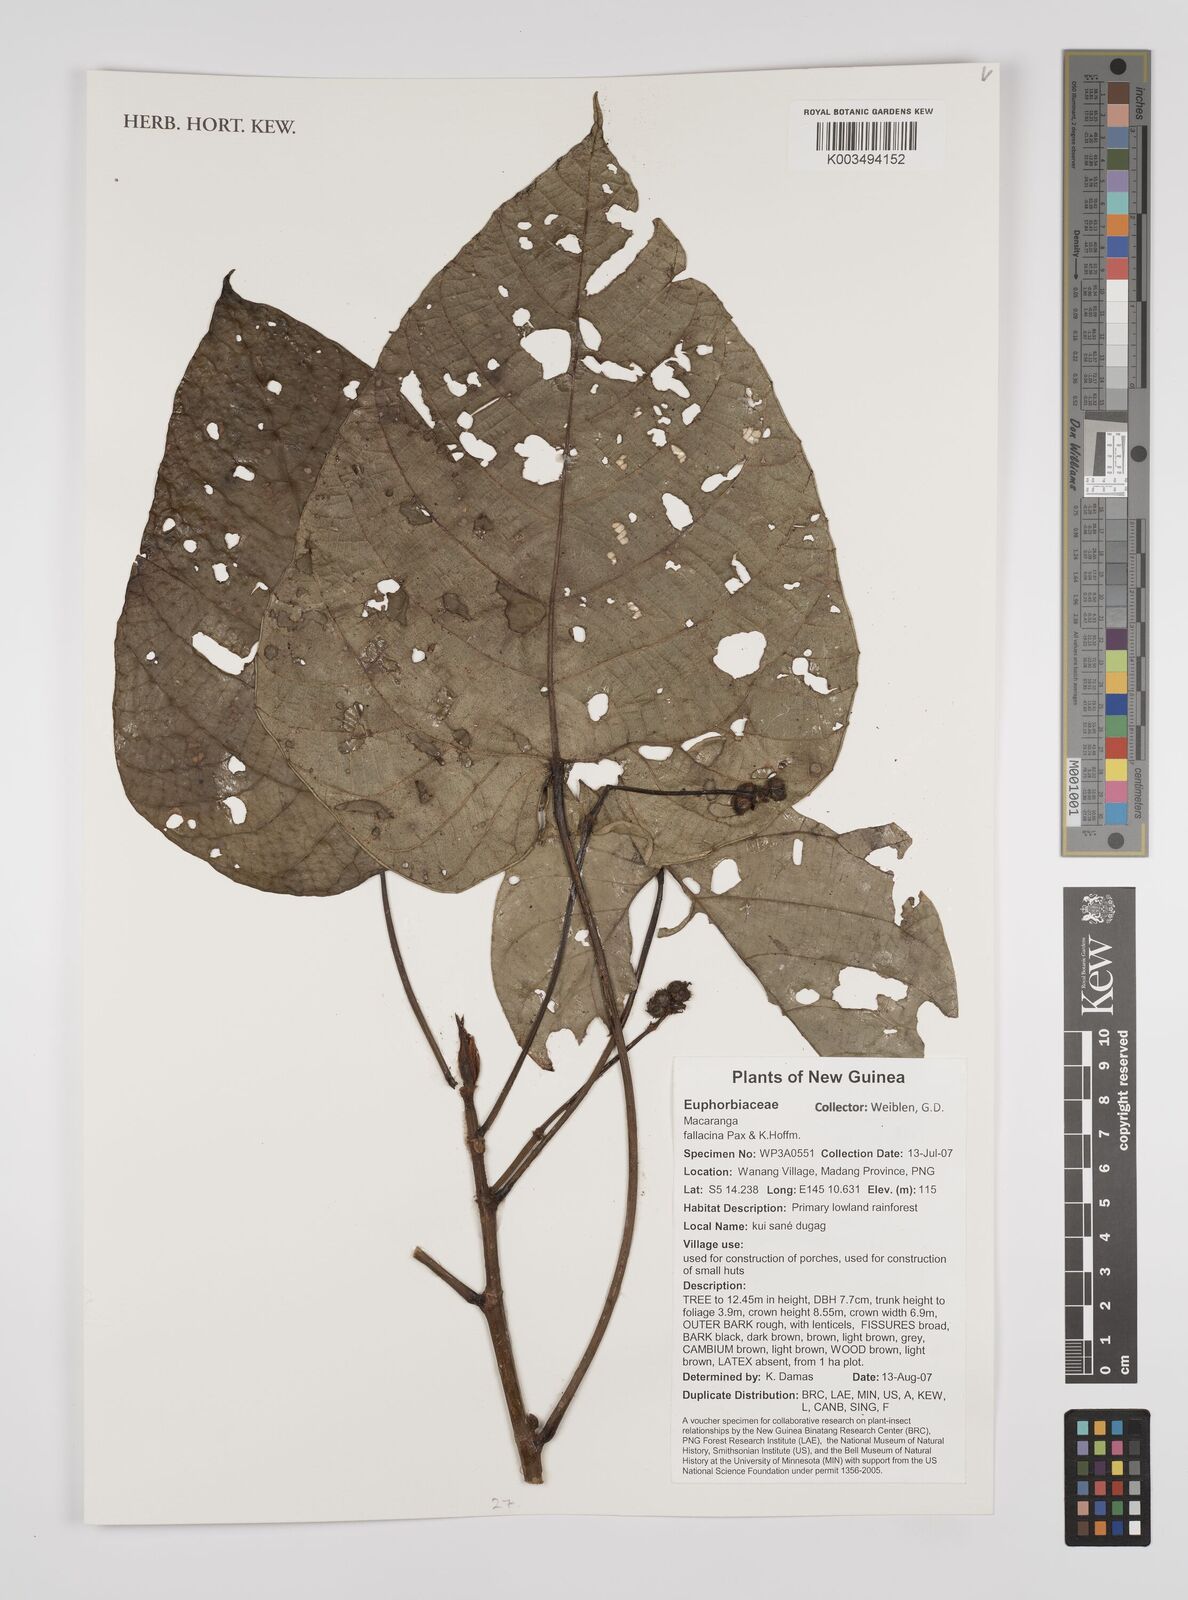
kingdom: Plantae
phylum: Tracheophyta
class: Magnoliopsida
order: Malpighiales
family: Euphorbiaceae
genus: Macaranga
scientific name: Macaranga fallacina
